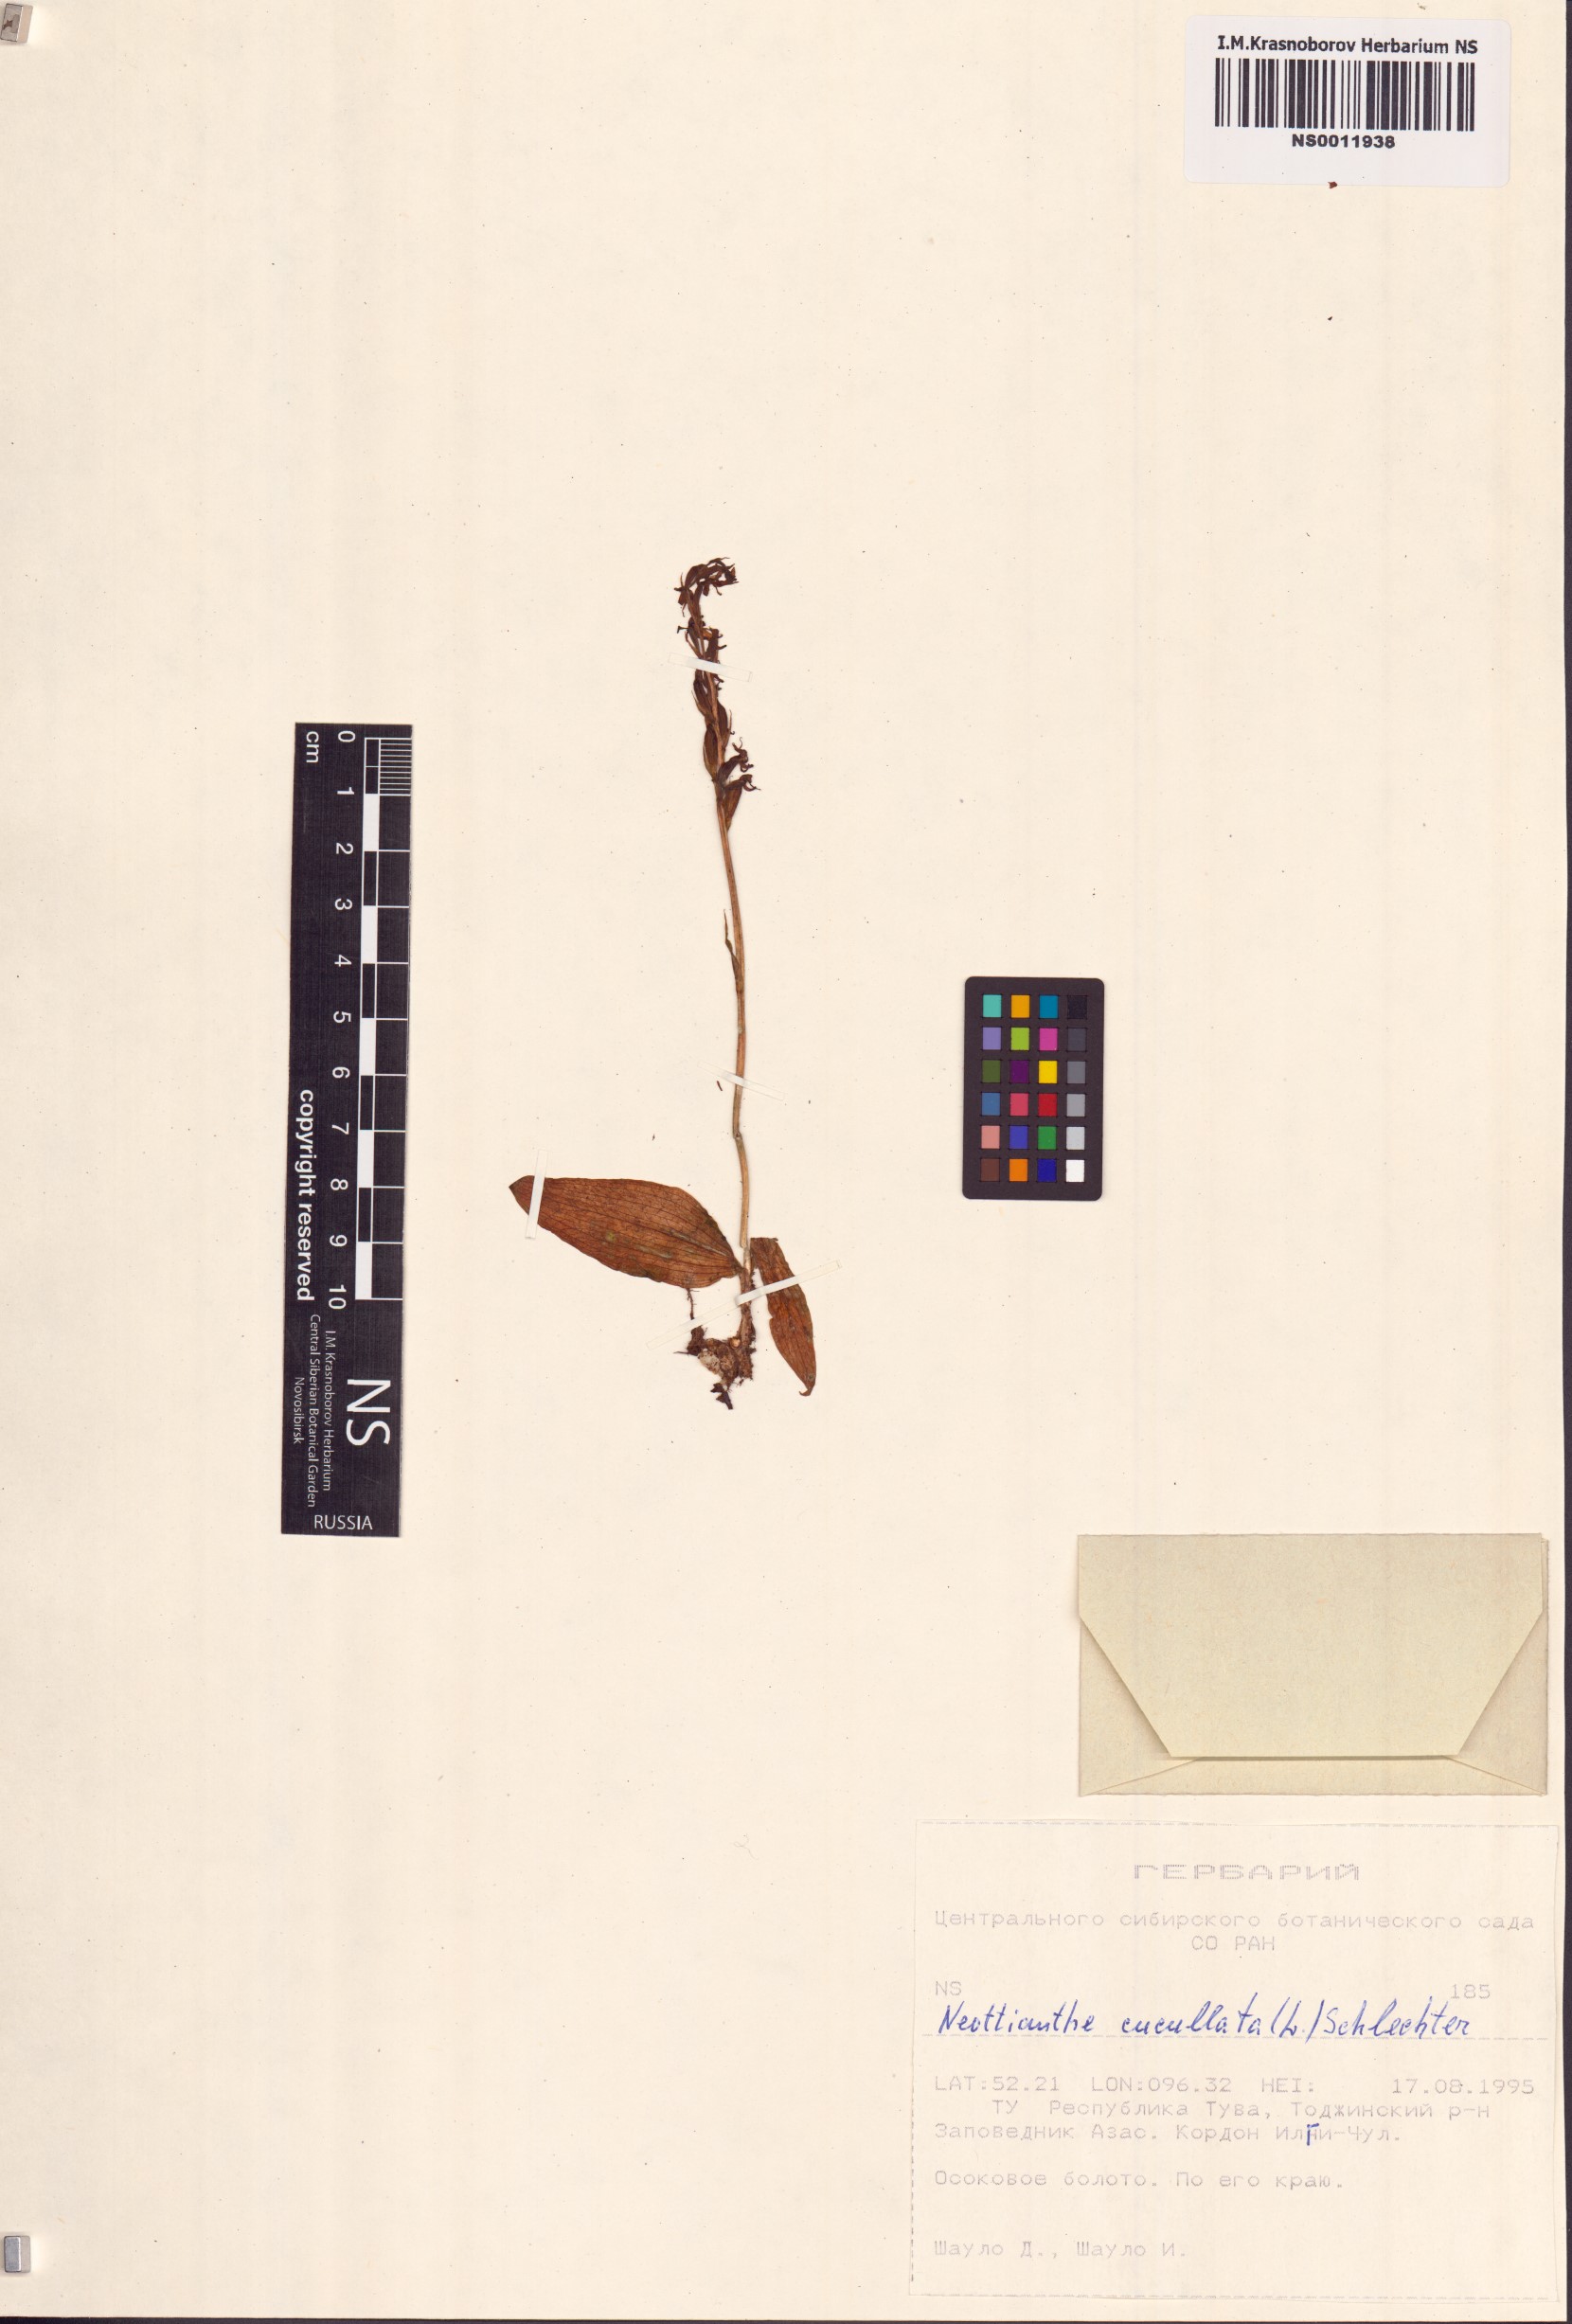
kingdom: Plantae
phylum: Tracheophyta
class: Liliopsida
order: Asparagales
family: Orchidaceae
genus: Hemipilia
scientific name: Hemipilia cucullata
